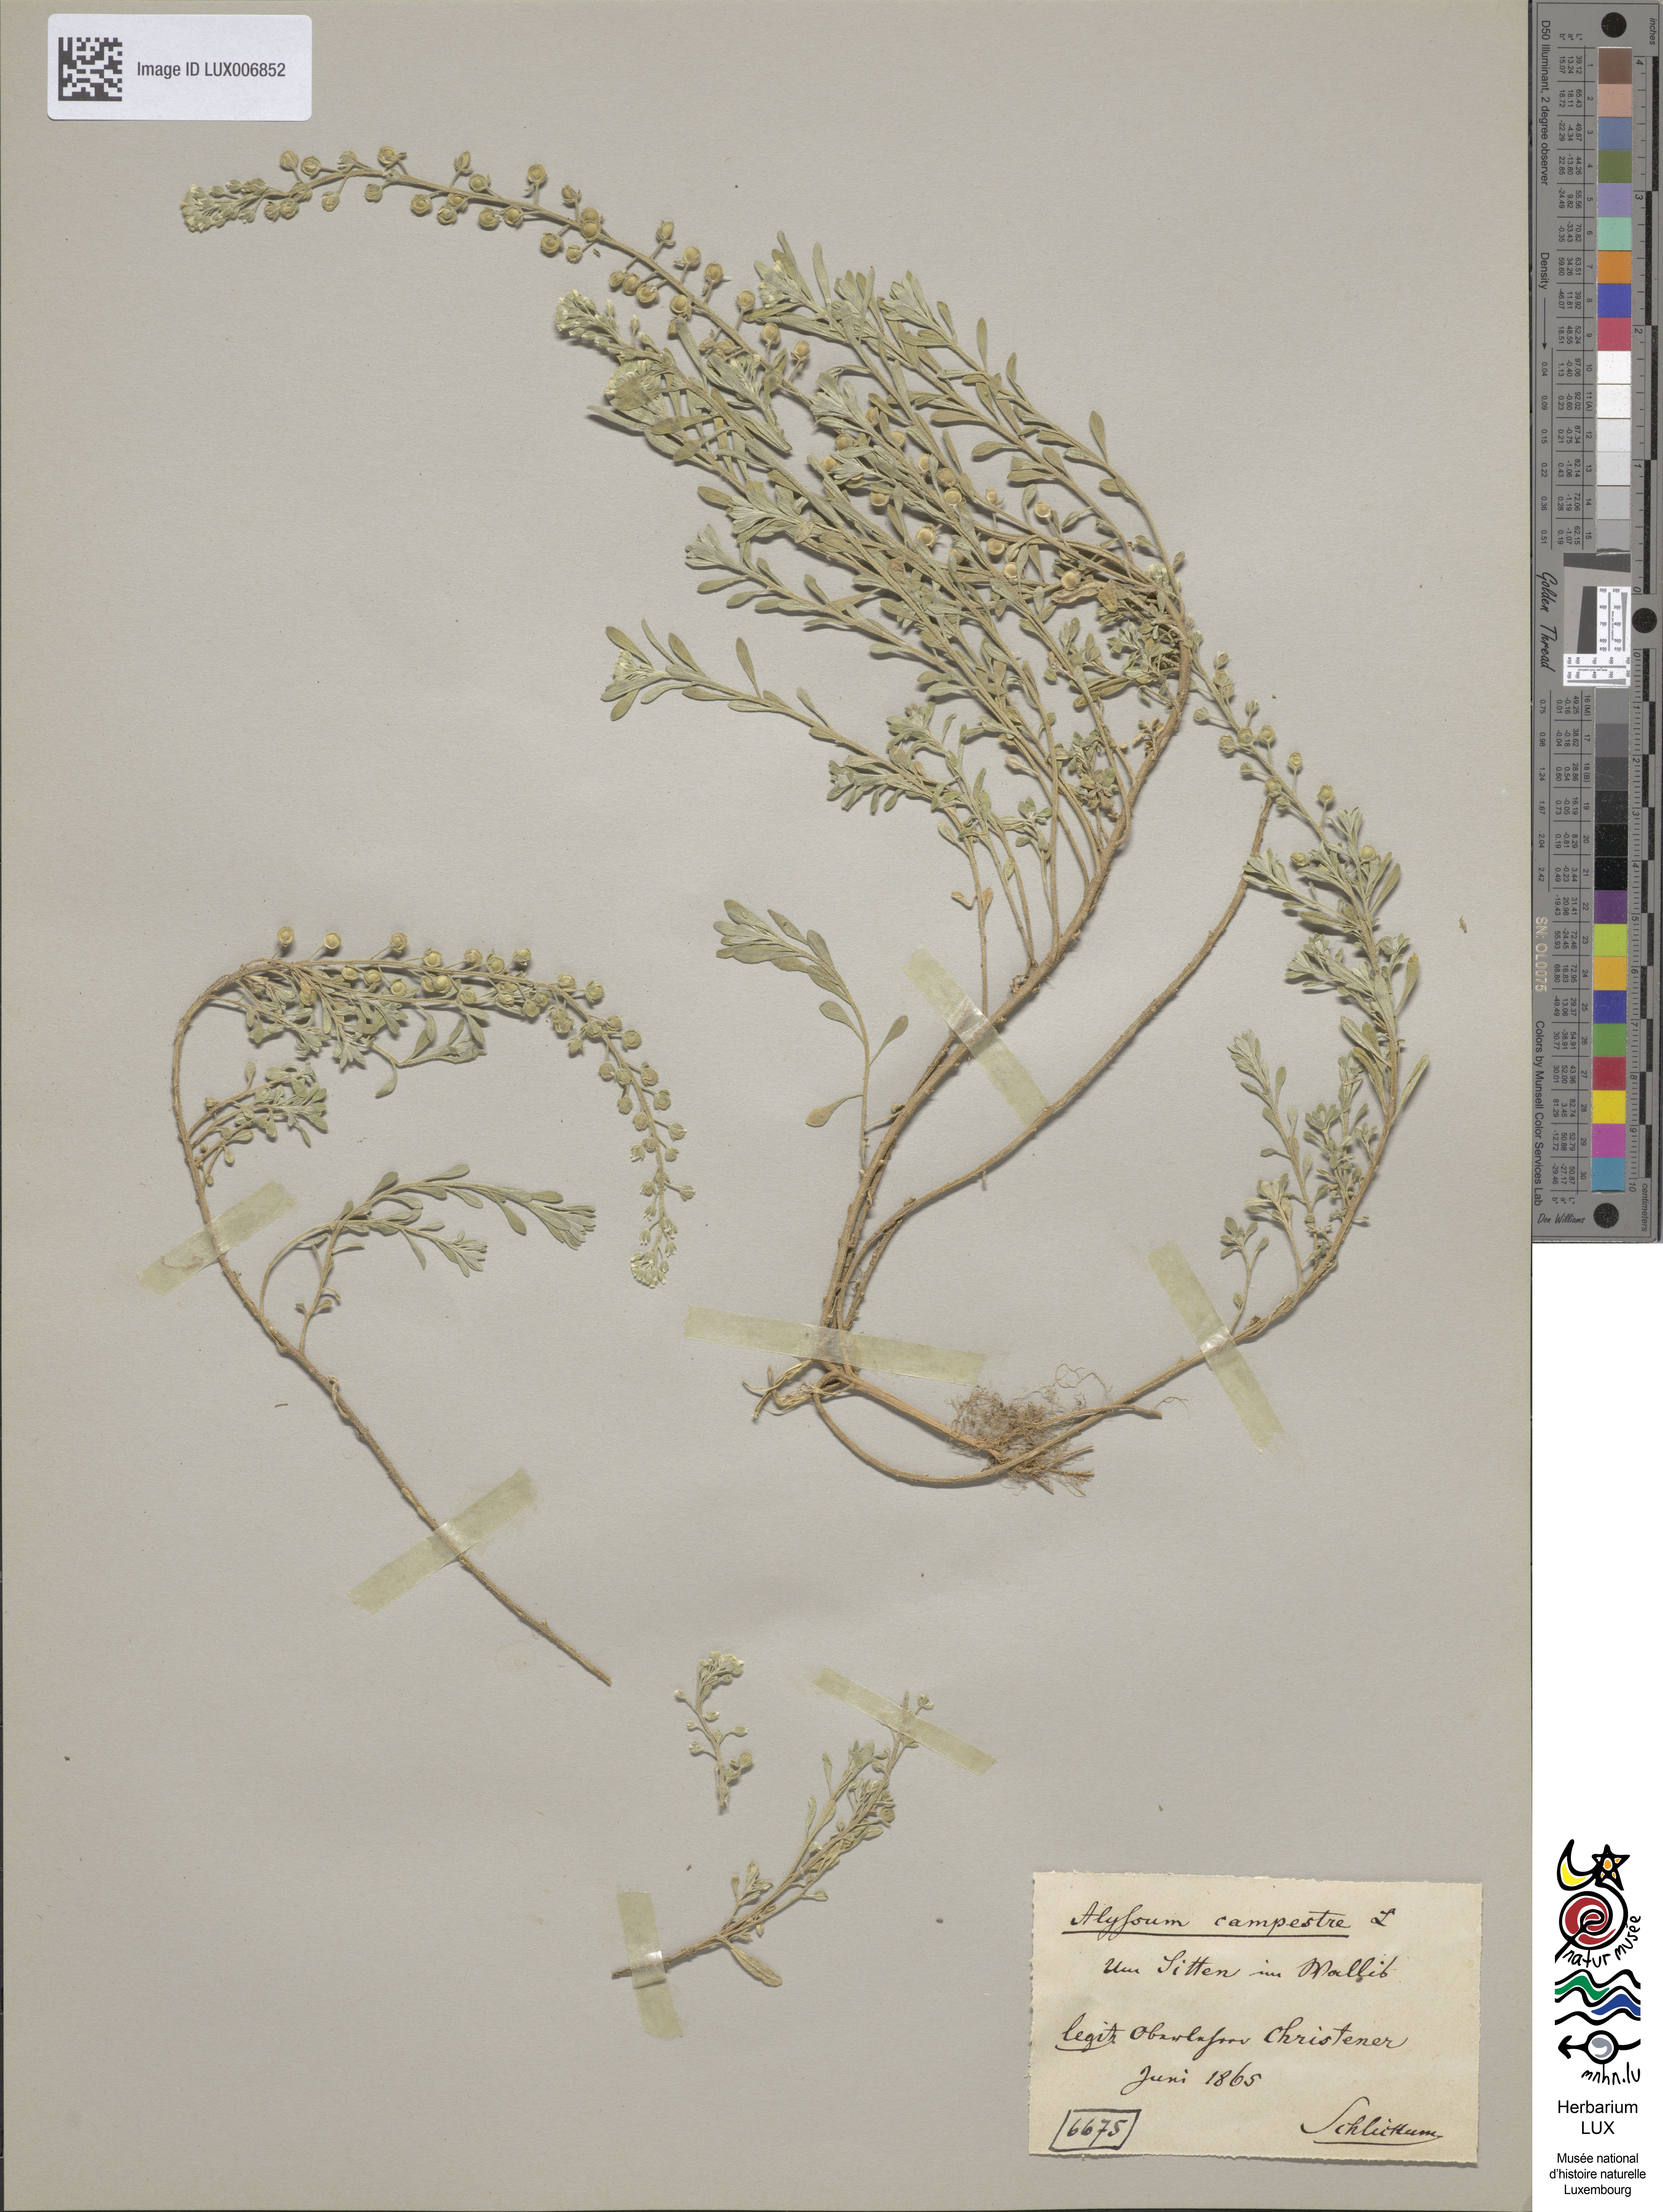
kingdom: Plantae
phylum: Tracheophyta
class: Magnoliopsida
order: Brassicales
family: Brassicaceae
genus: Alyssum
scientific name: Alyssum alyssoides
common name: Small alison
